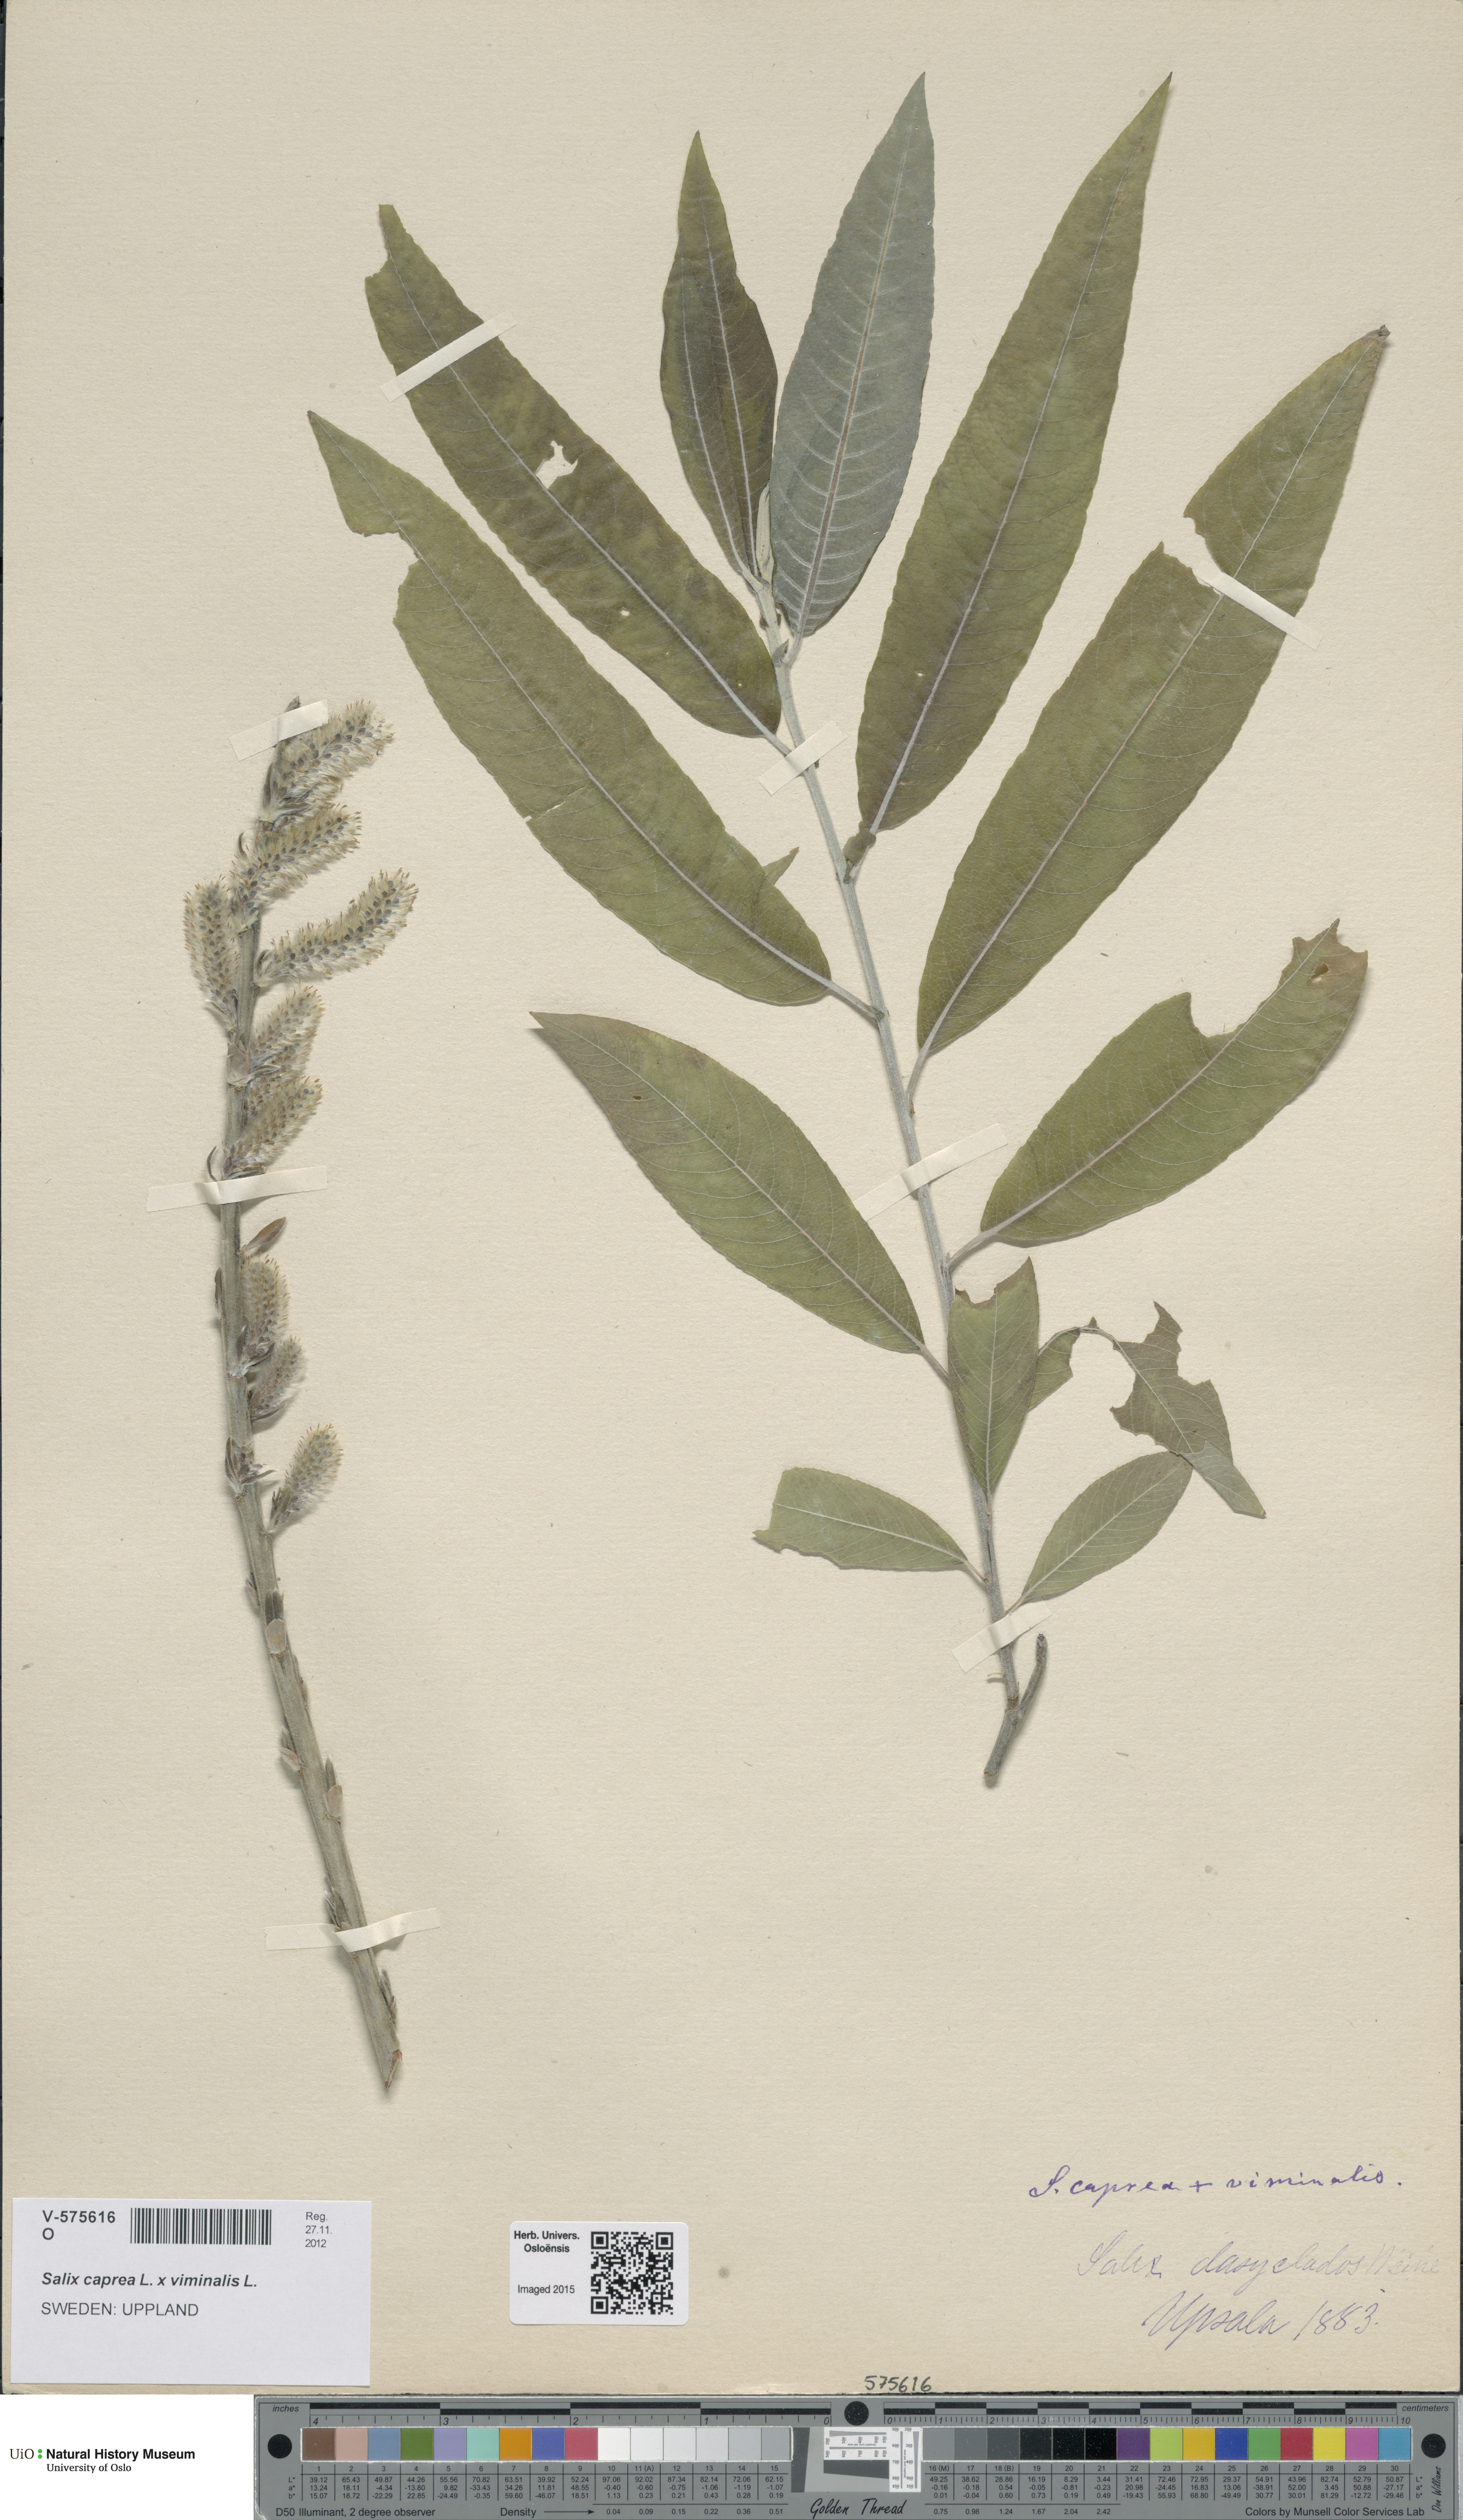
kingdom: Plantae
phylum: Tracheophyta
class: Magnoliopsida
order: Malpighiales
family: Salicaceae
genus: Salix
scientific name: Salix
